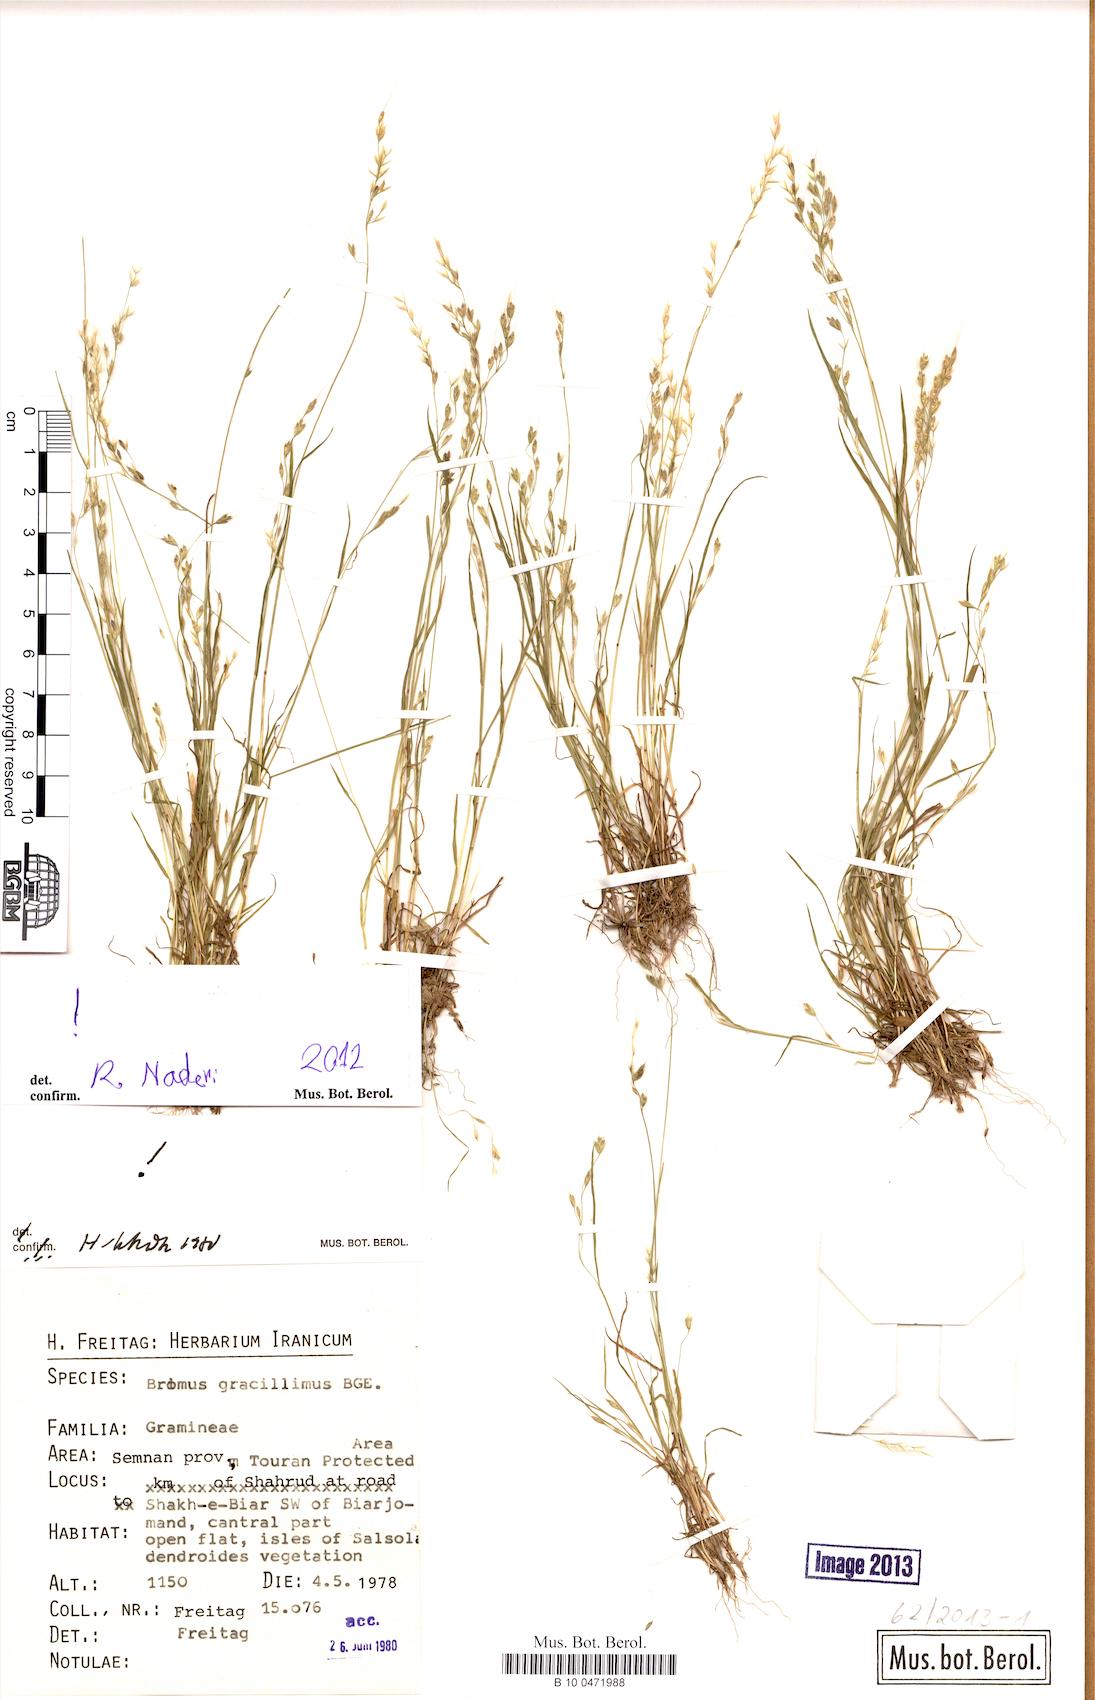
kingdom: Plantae
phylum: Tracheophyta
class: Liliopsida
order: Poales
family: Poaceae
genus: Bromus
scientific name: Bromus gracillimus
